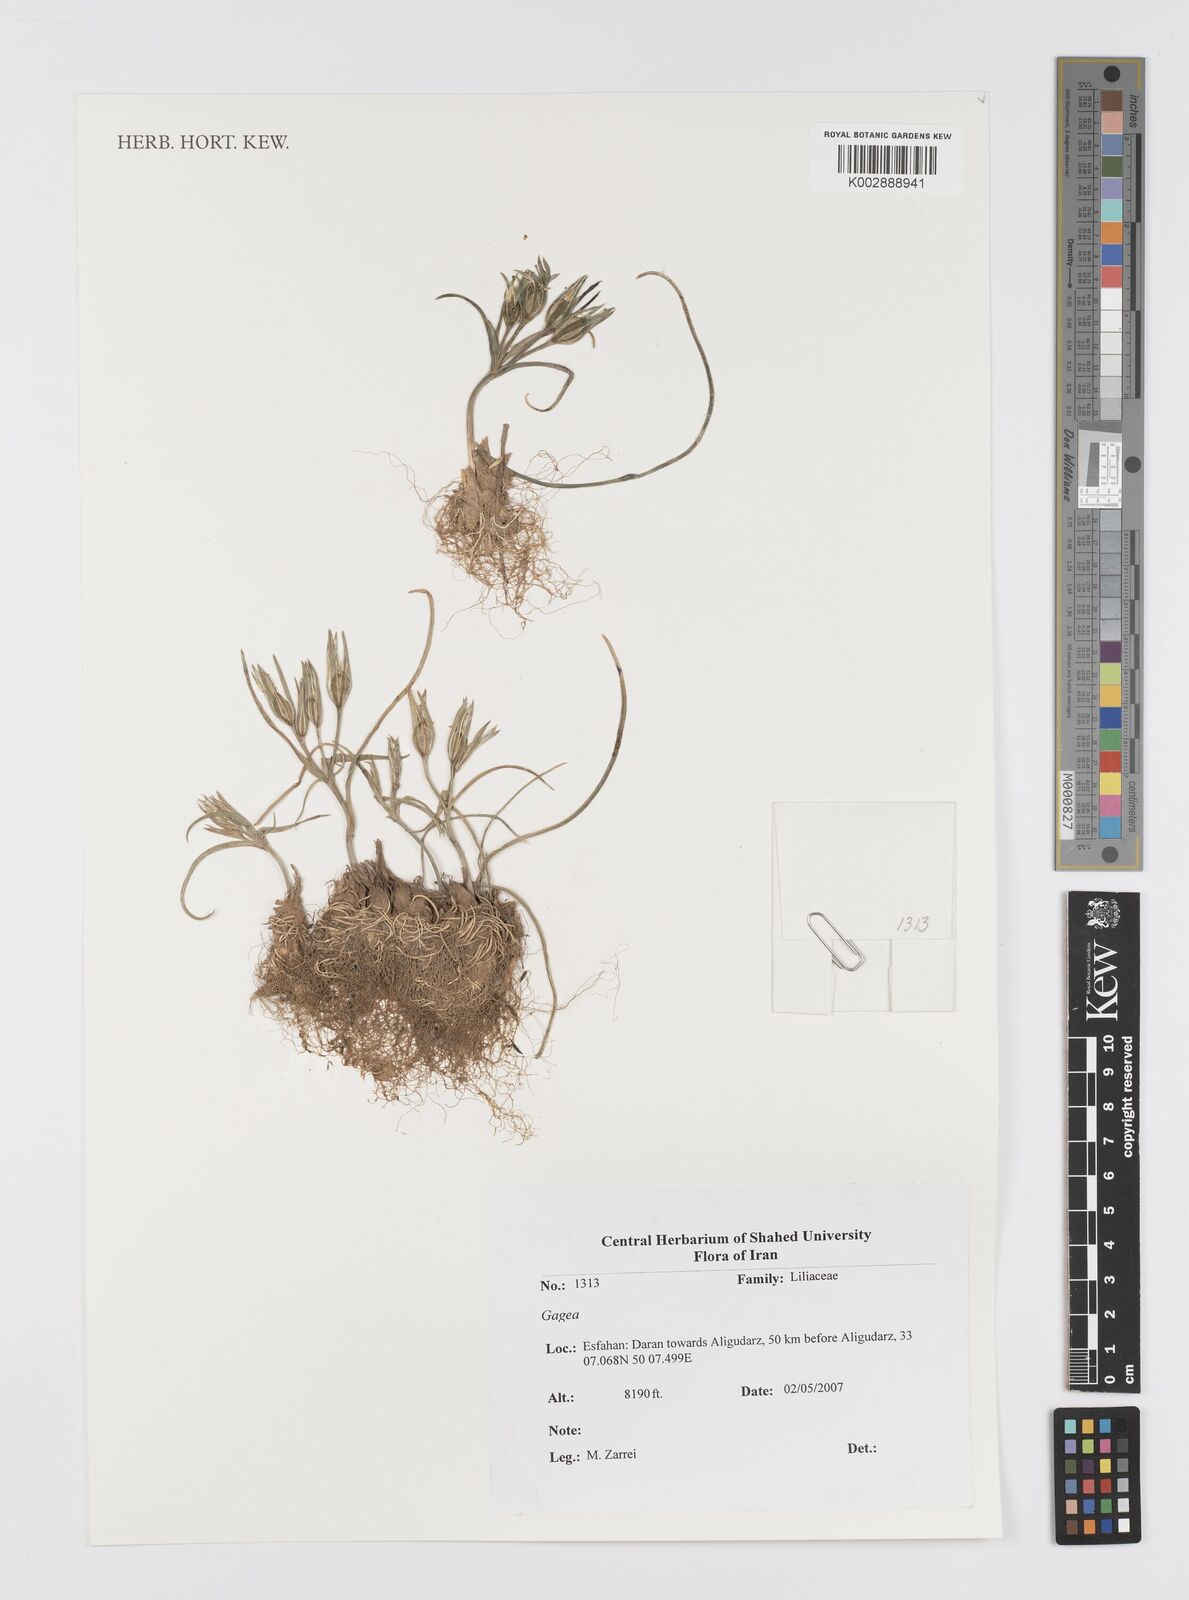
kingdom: Plantae
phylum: Tracheophyta
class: Liliopsida
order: Liliales
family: Liliaceae
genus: Gagea
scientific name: Gagea
